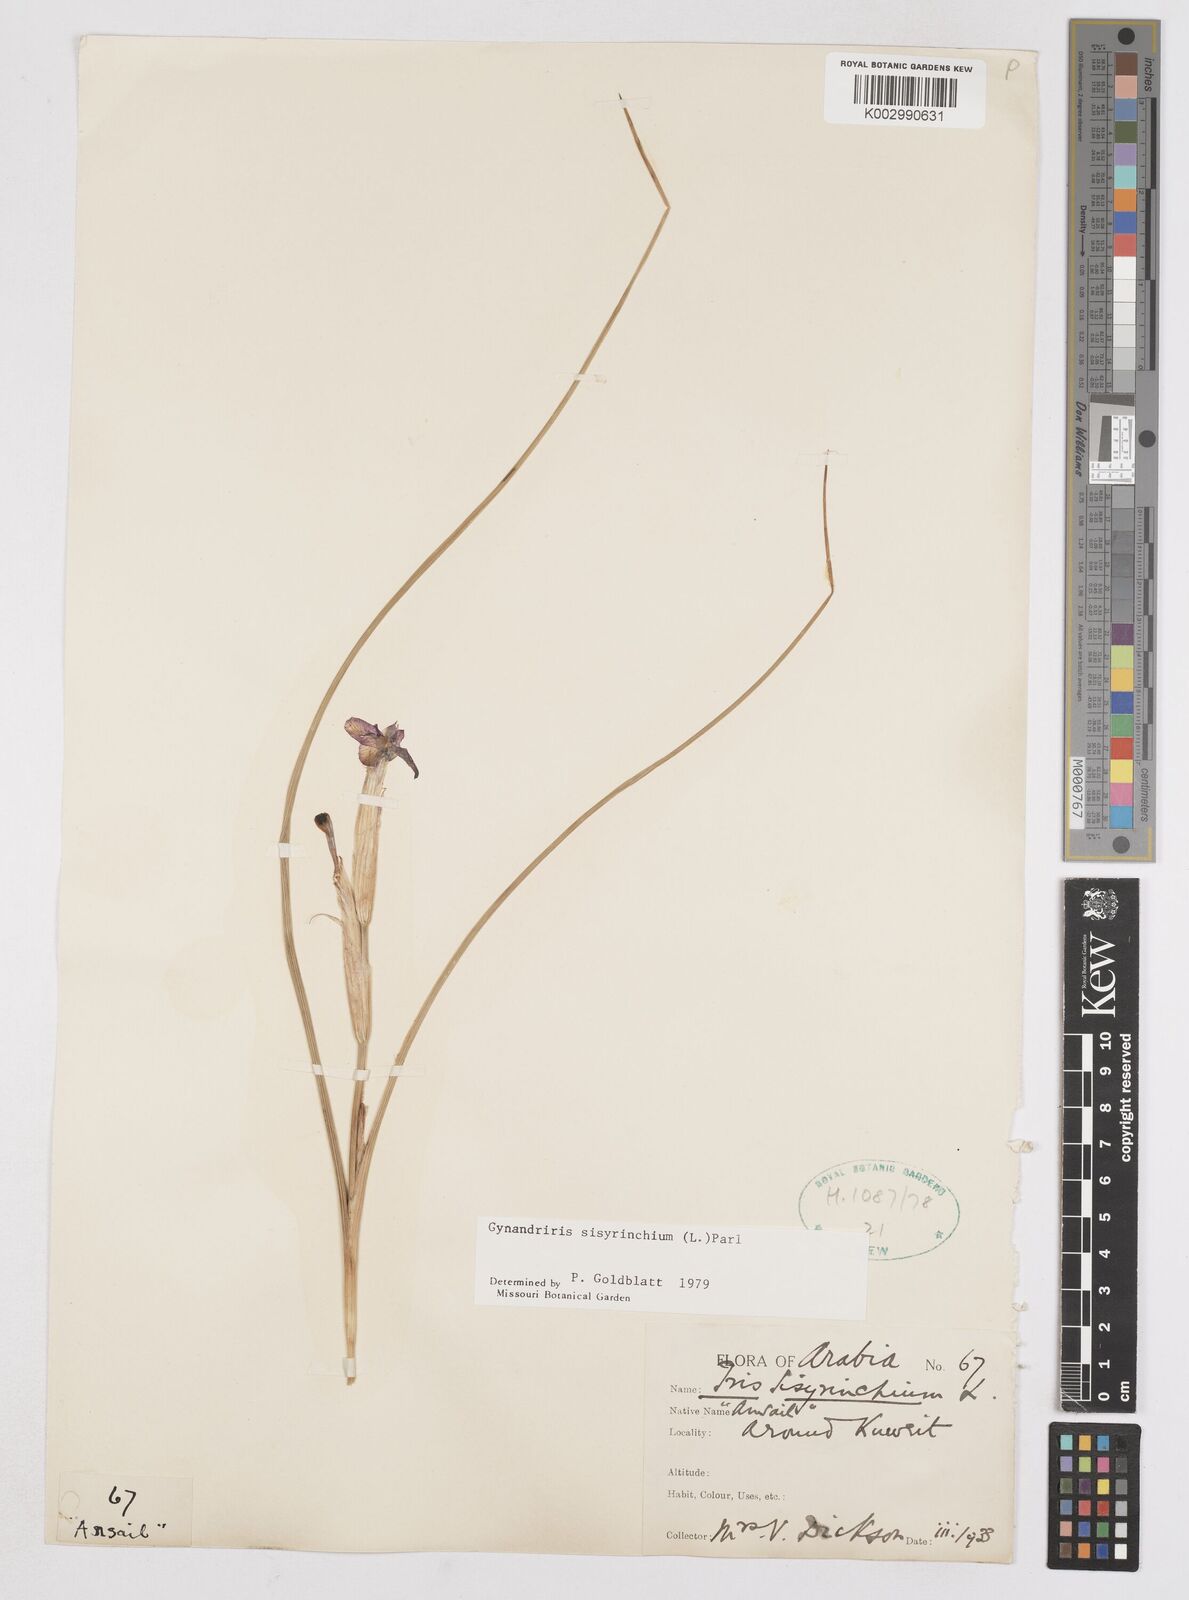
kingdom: Plantae
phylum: Tracheophyta
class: Liliopsida
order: Asparagales
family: Iridaceae
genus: Moraea
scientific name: Moraea sisyrinchium
